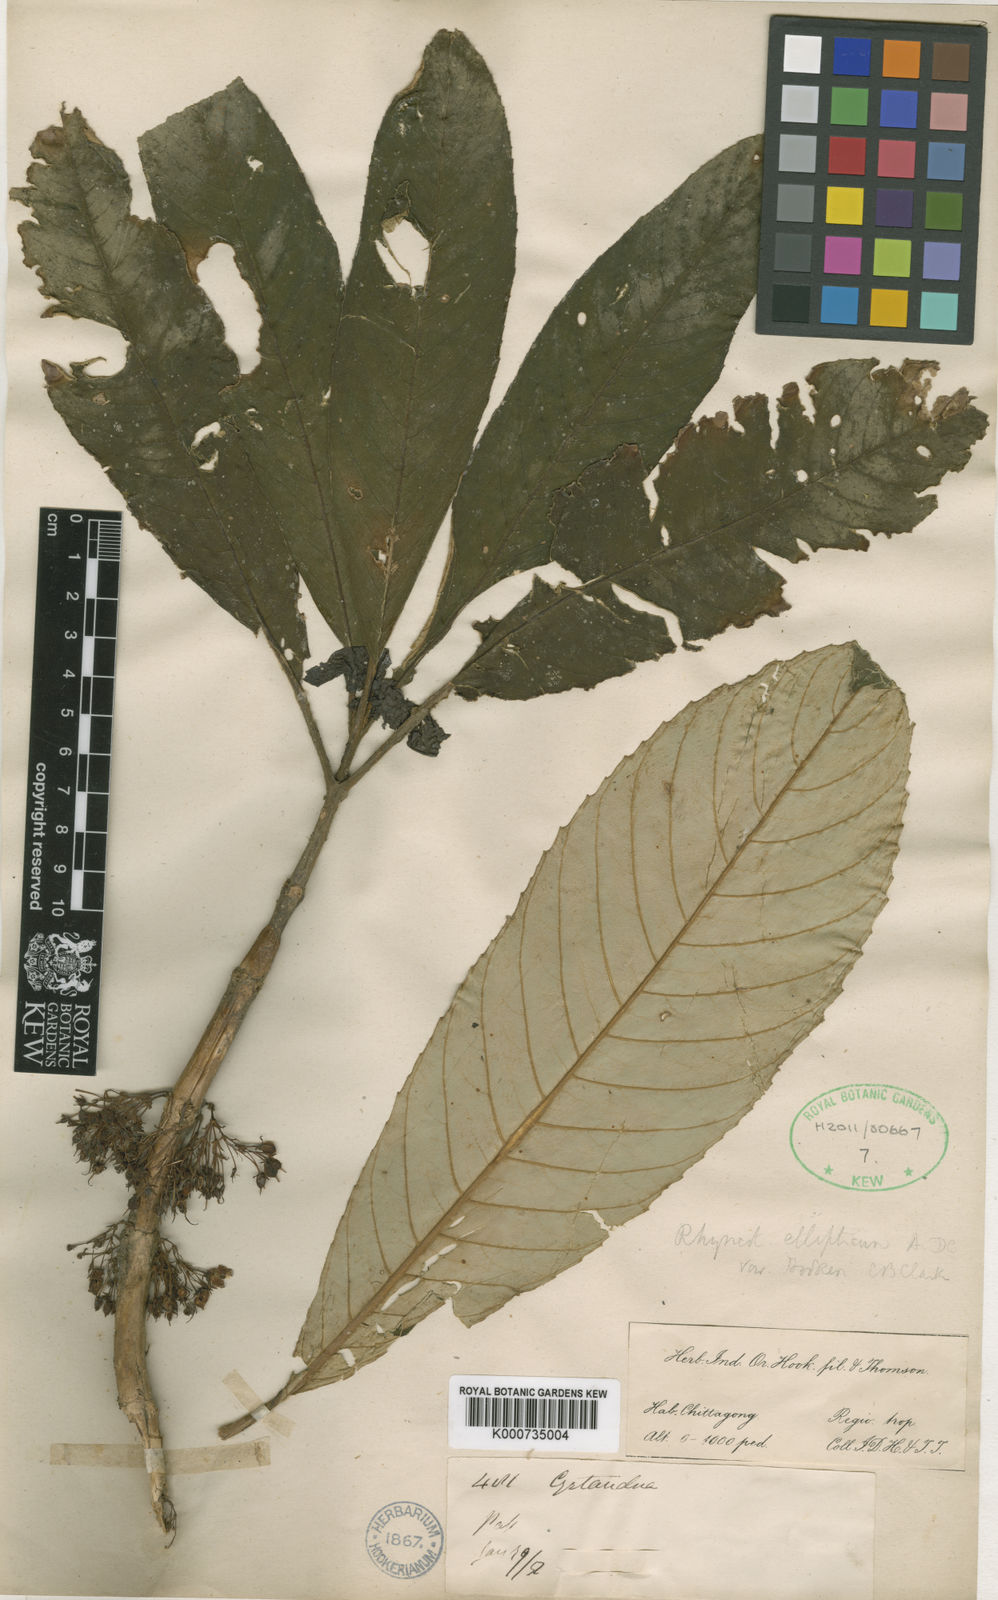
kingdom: Plantae
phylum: Tracheophyta
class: Magnoliopsida
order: Lamiales
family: Gesneriaceae
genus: Rhynchotechum
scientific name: Rhynchotechum hookeri
